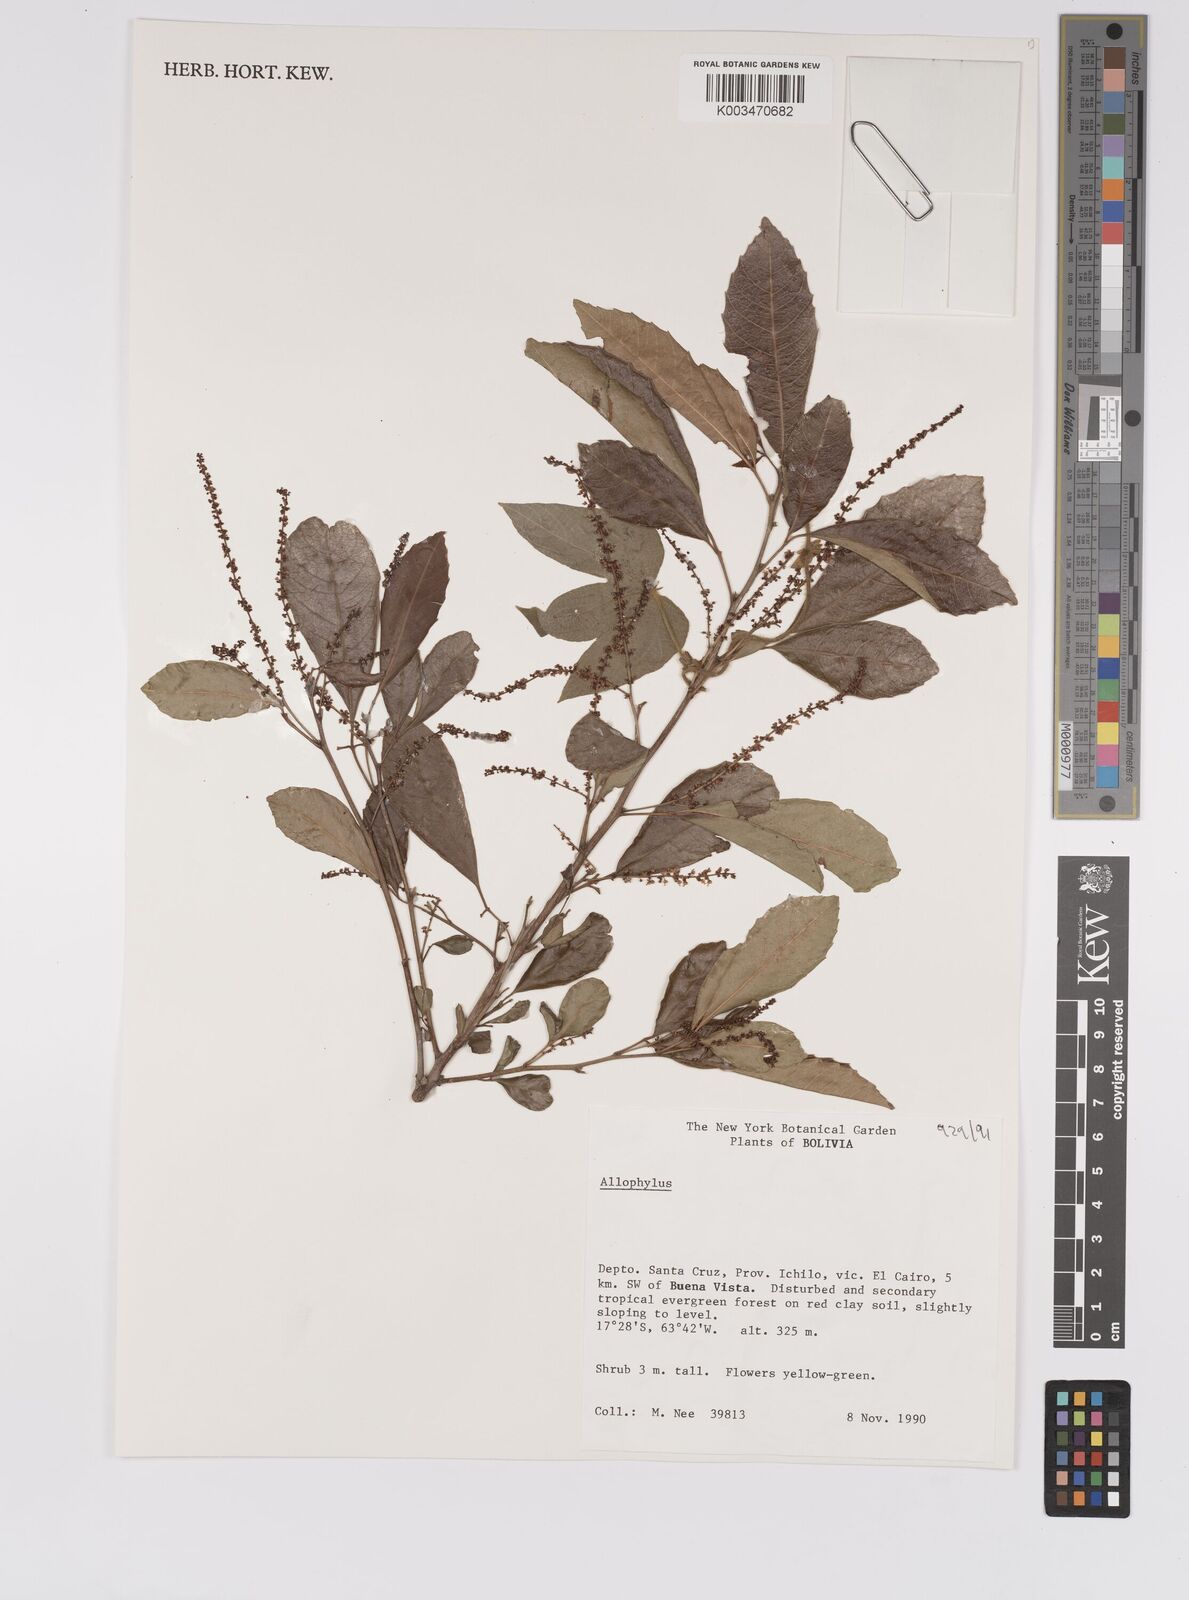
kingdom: Plantae
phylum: Tracheophyta
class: Magnoliopsida
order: Sapindales
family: Sapindaceae
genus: Allophylus
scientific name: Allophylus
